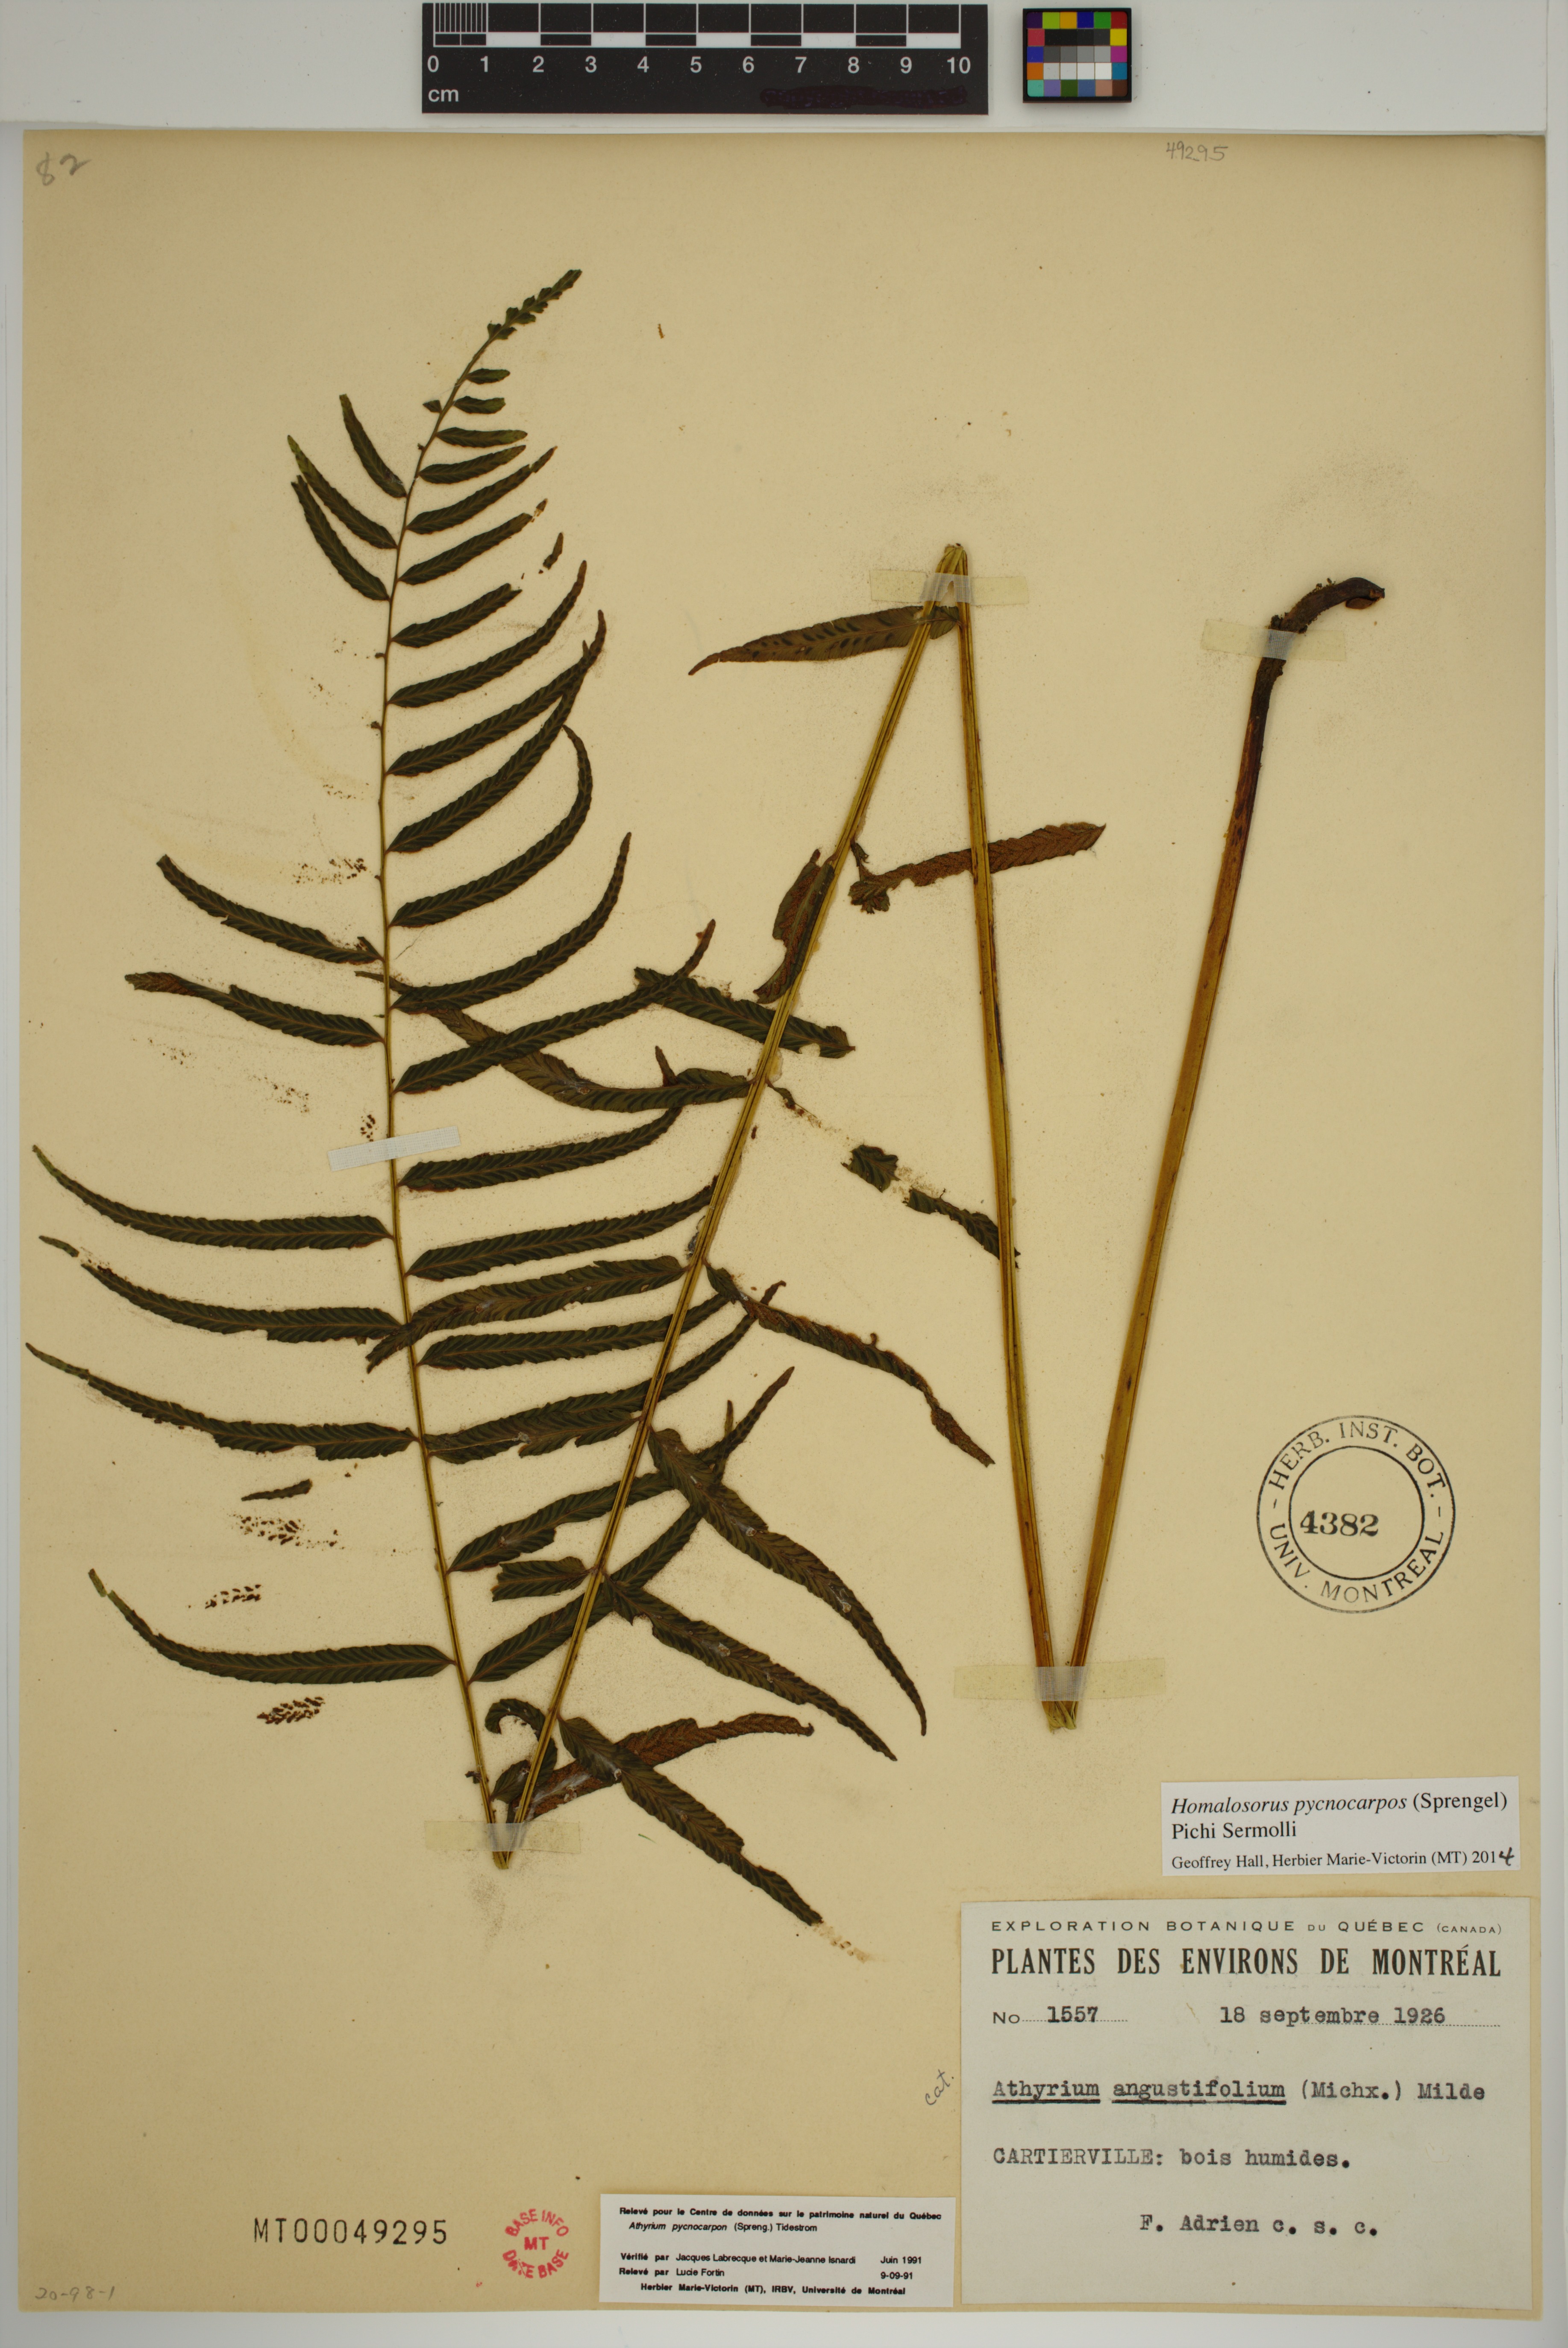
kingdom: Plantae
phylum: Tracheophyta
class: Polypodiopsida
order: Polypodiales
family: Diplaziopsidaceae
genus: Homalosorus
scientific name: Homalosorus pycnocarpos
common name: Glade fern
